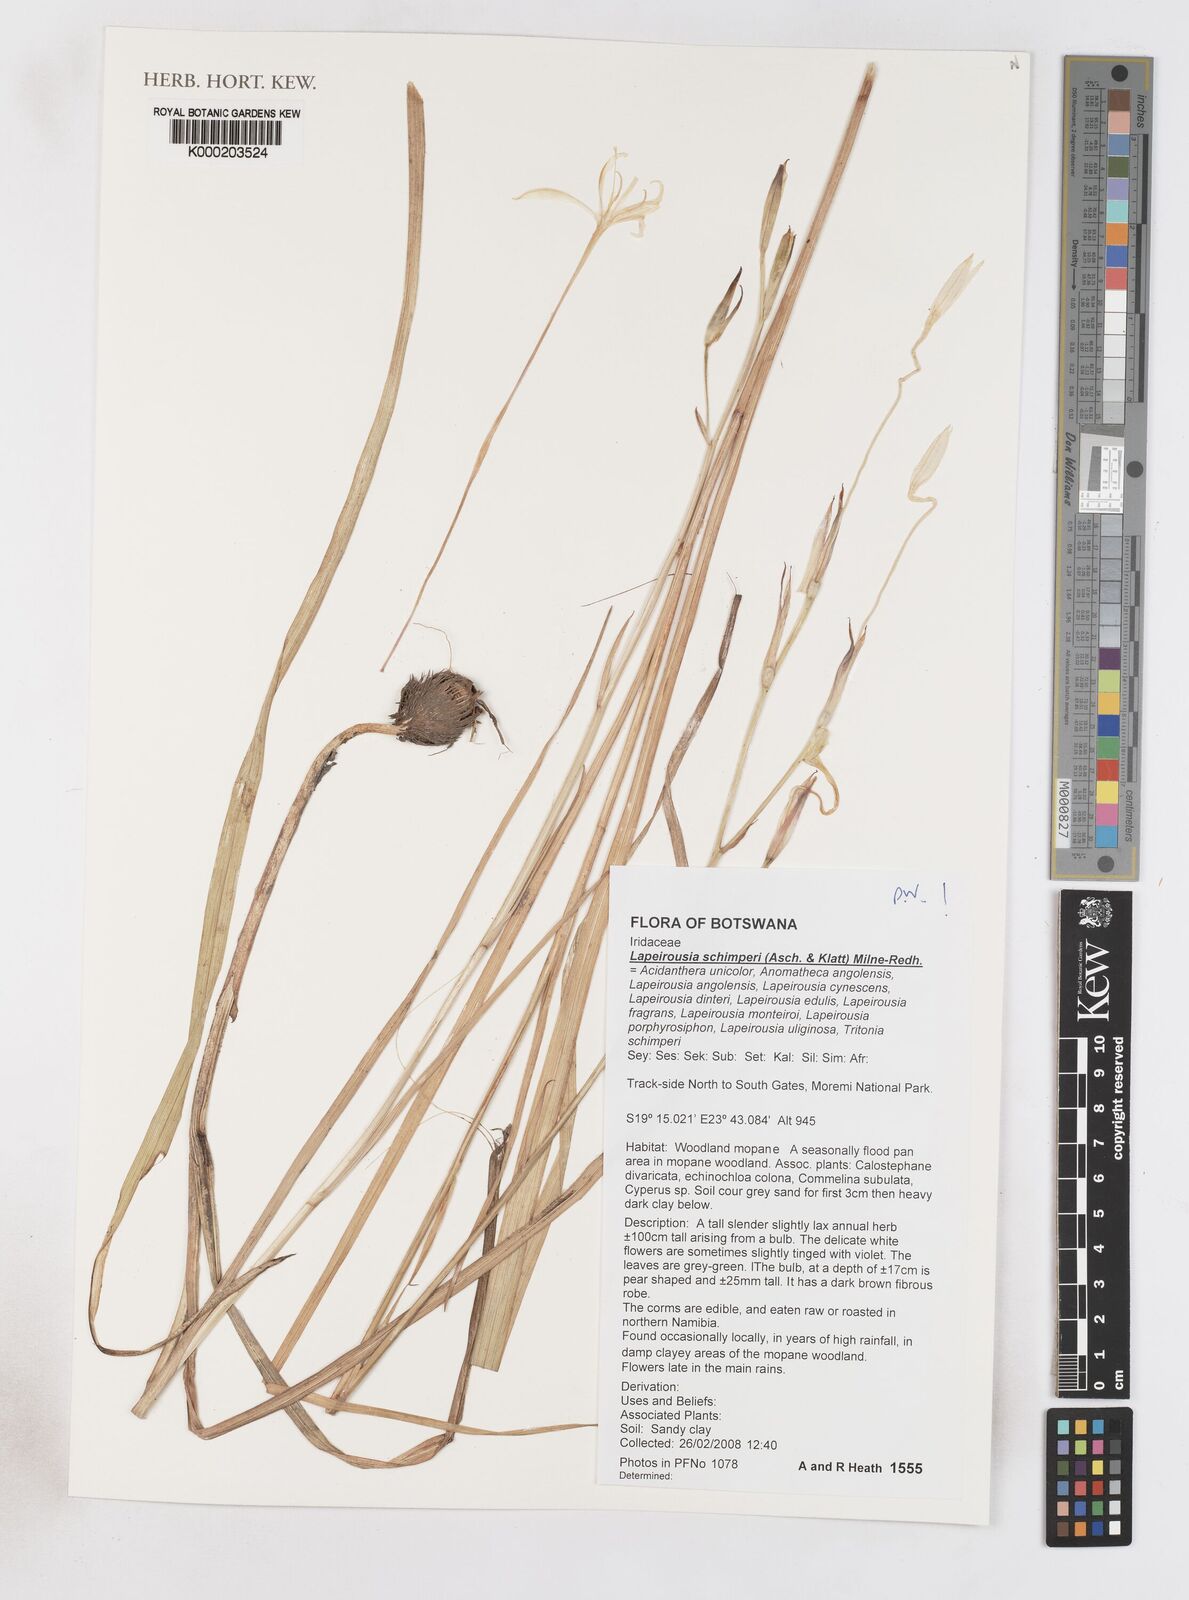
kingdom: Plantae
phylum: Tracheophyta
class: Liliopsida
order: Asparagales
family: Iridaceae
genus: Afrosolen
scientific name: Afrosolen schimperi
